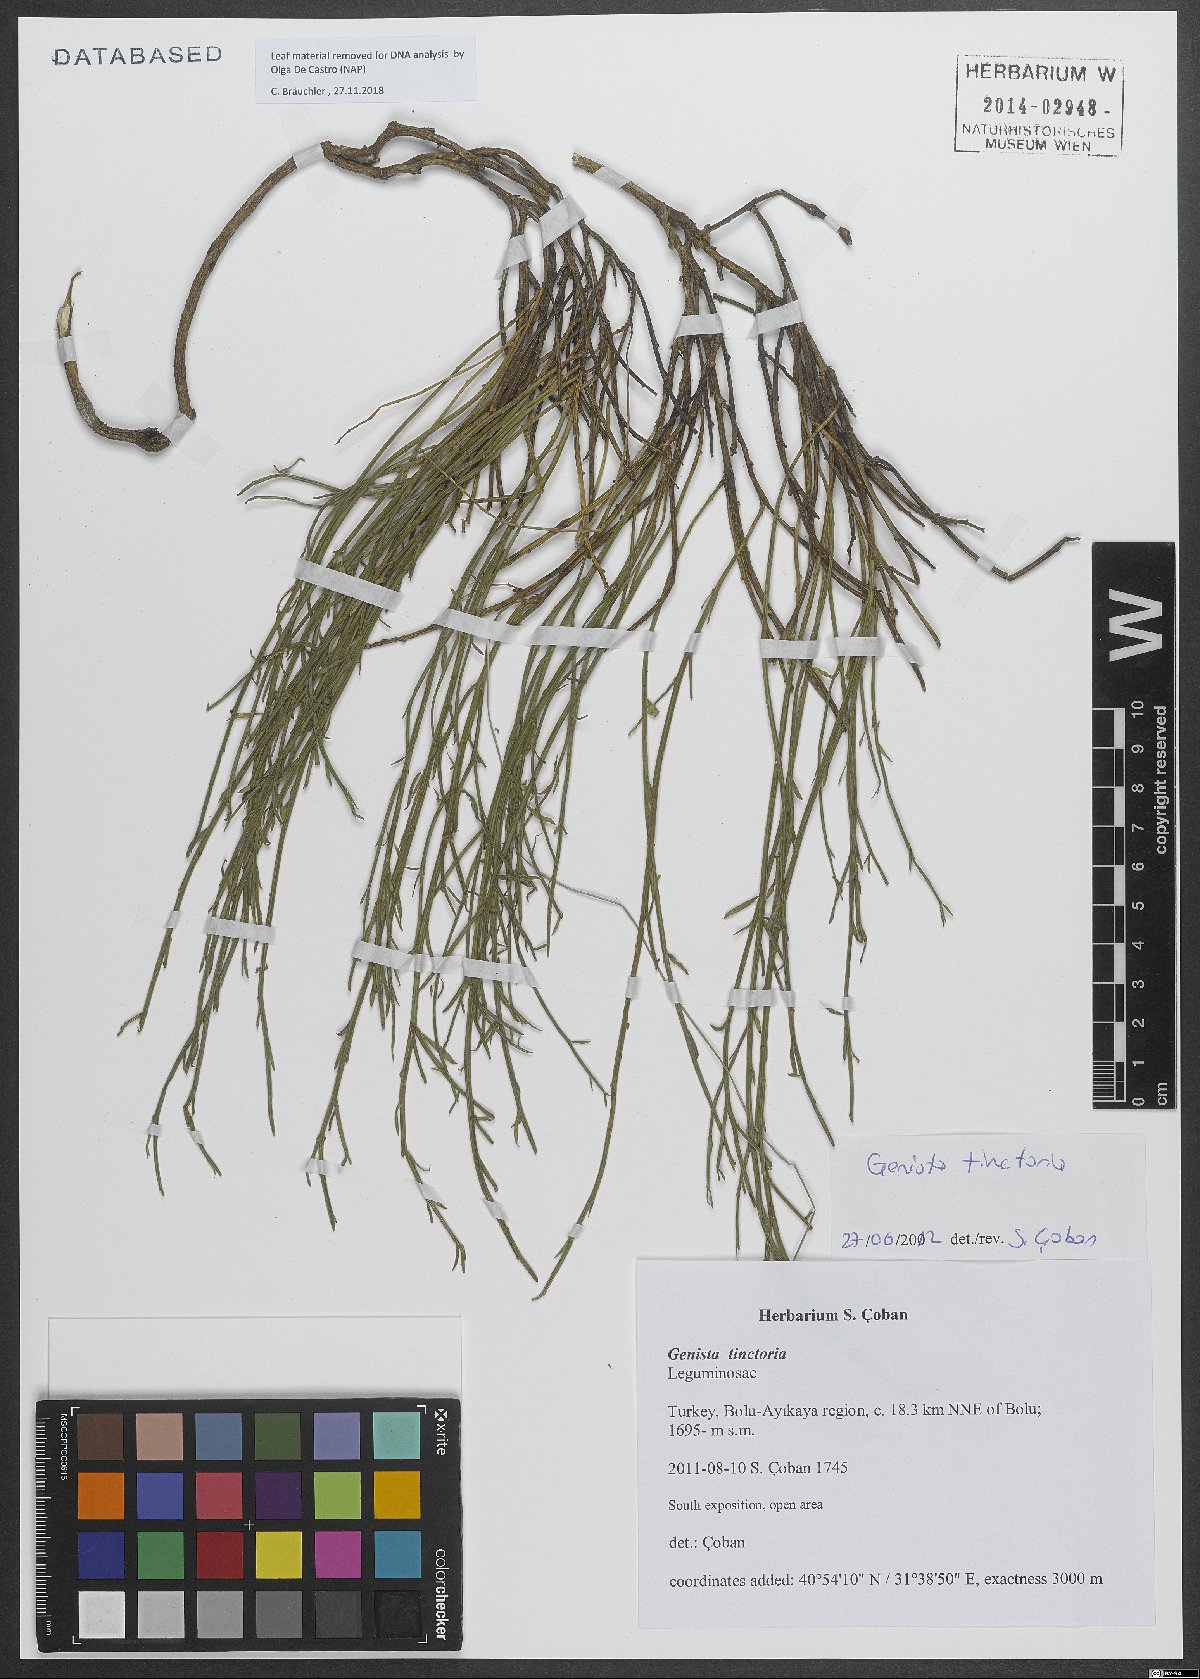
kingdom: Plantae
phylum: Tracheophyta
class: Magnoliopsida
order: Fabales
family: Fabaceae
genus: Genista
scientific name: Genista tinctoria
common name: Dyer's greenweed
